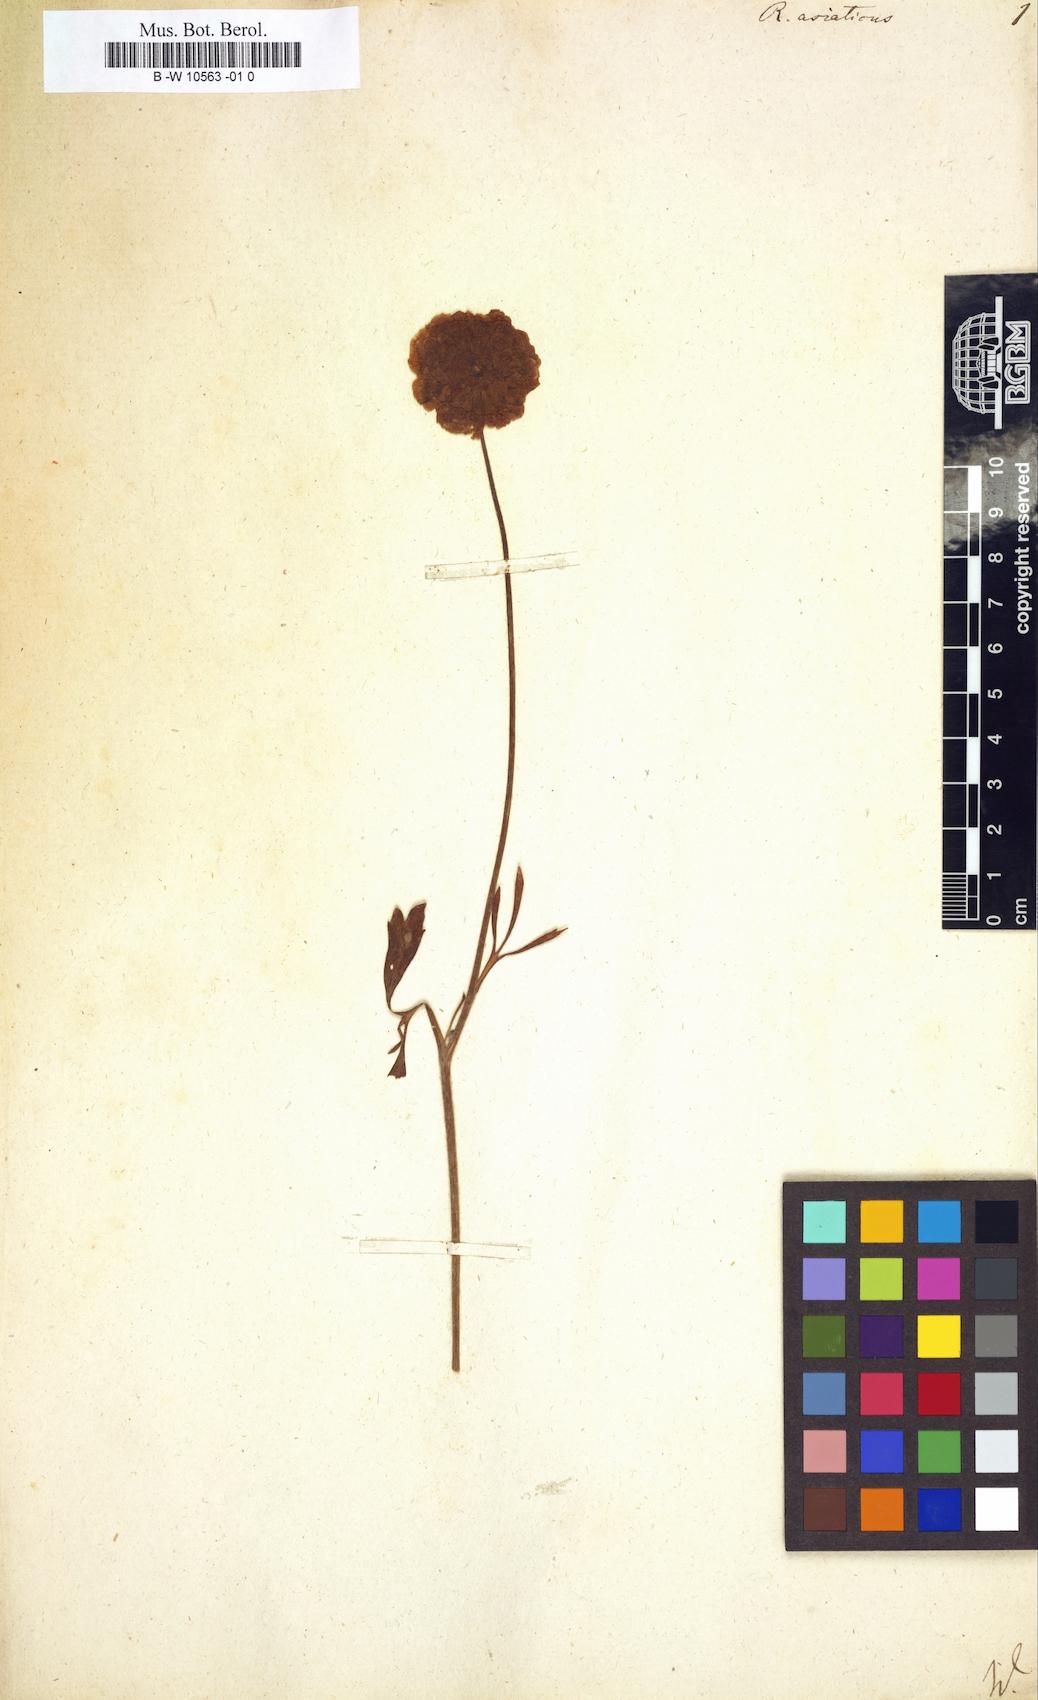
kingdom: Plantae
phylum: Tracheophyta
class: Magnoliopsida
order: Ranunculales
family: Ranunculaceae
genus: Ranunculus
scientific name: Ranunculus asiaticus
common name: Persian buttercup
